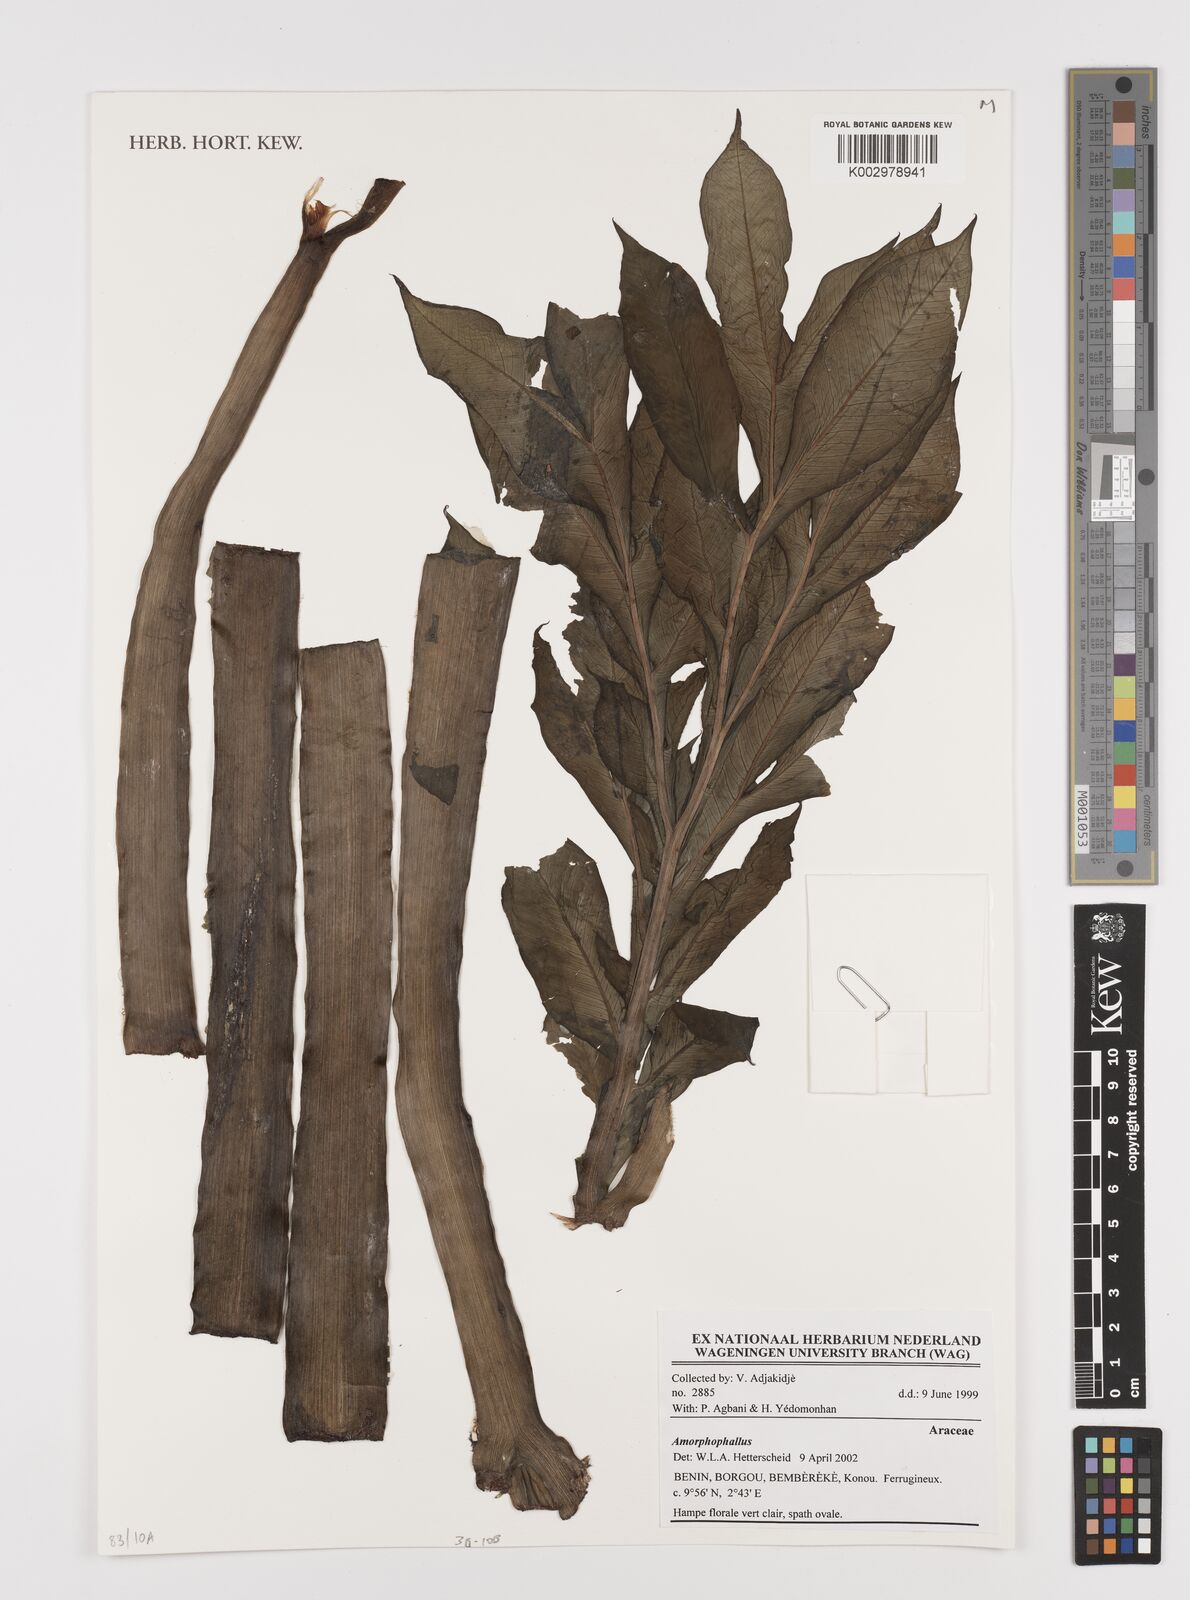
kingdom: Plantae
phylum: Tracheophyta
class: Liliopsida
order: Alismatales
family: Araceae
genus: Amorphophallus
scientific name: Amorphophallus
